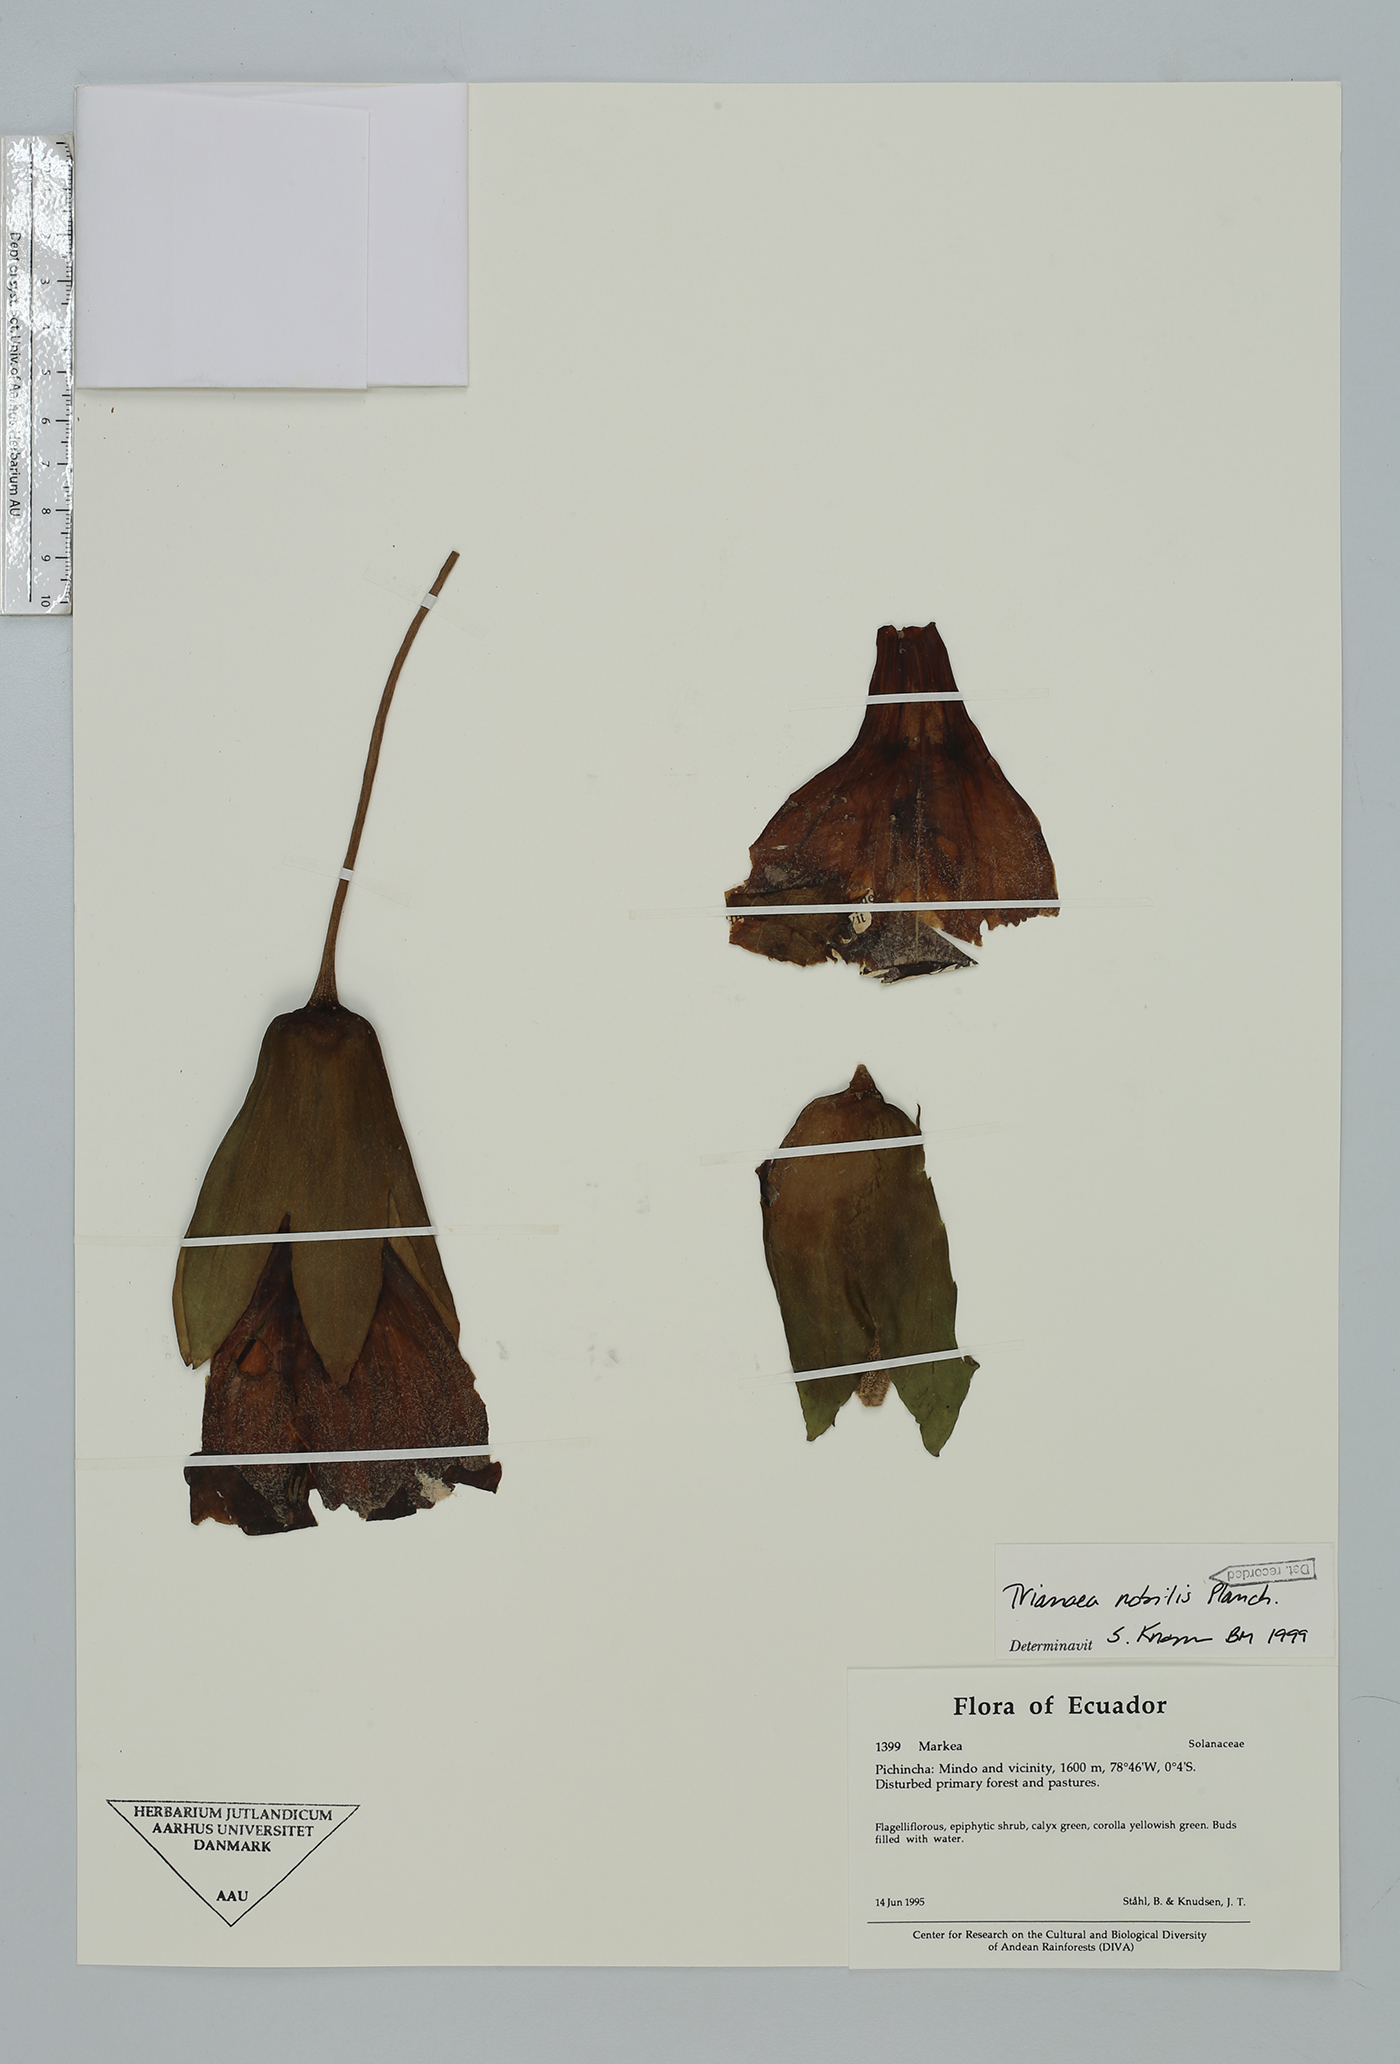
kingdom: Plantae
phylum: Tracheophyta
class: Magnoliopsida
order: Solanales
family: Solanaceae
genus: Trianaea
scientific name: Trianaea nobilis
